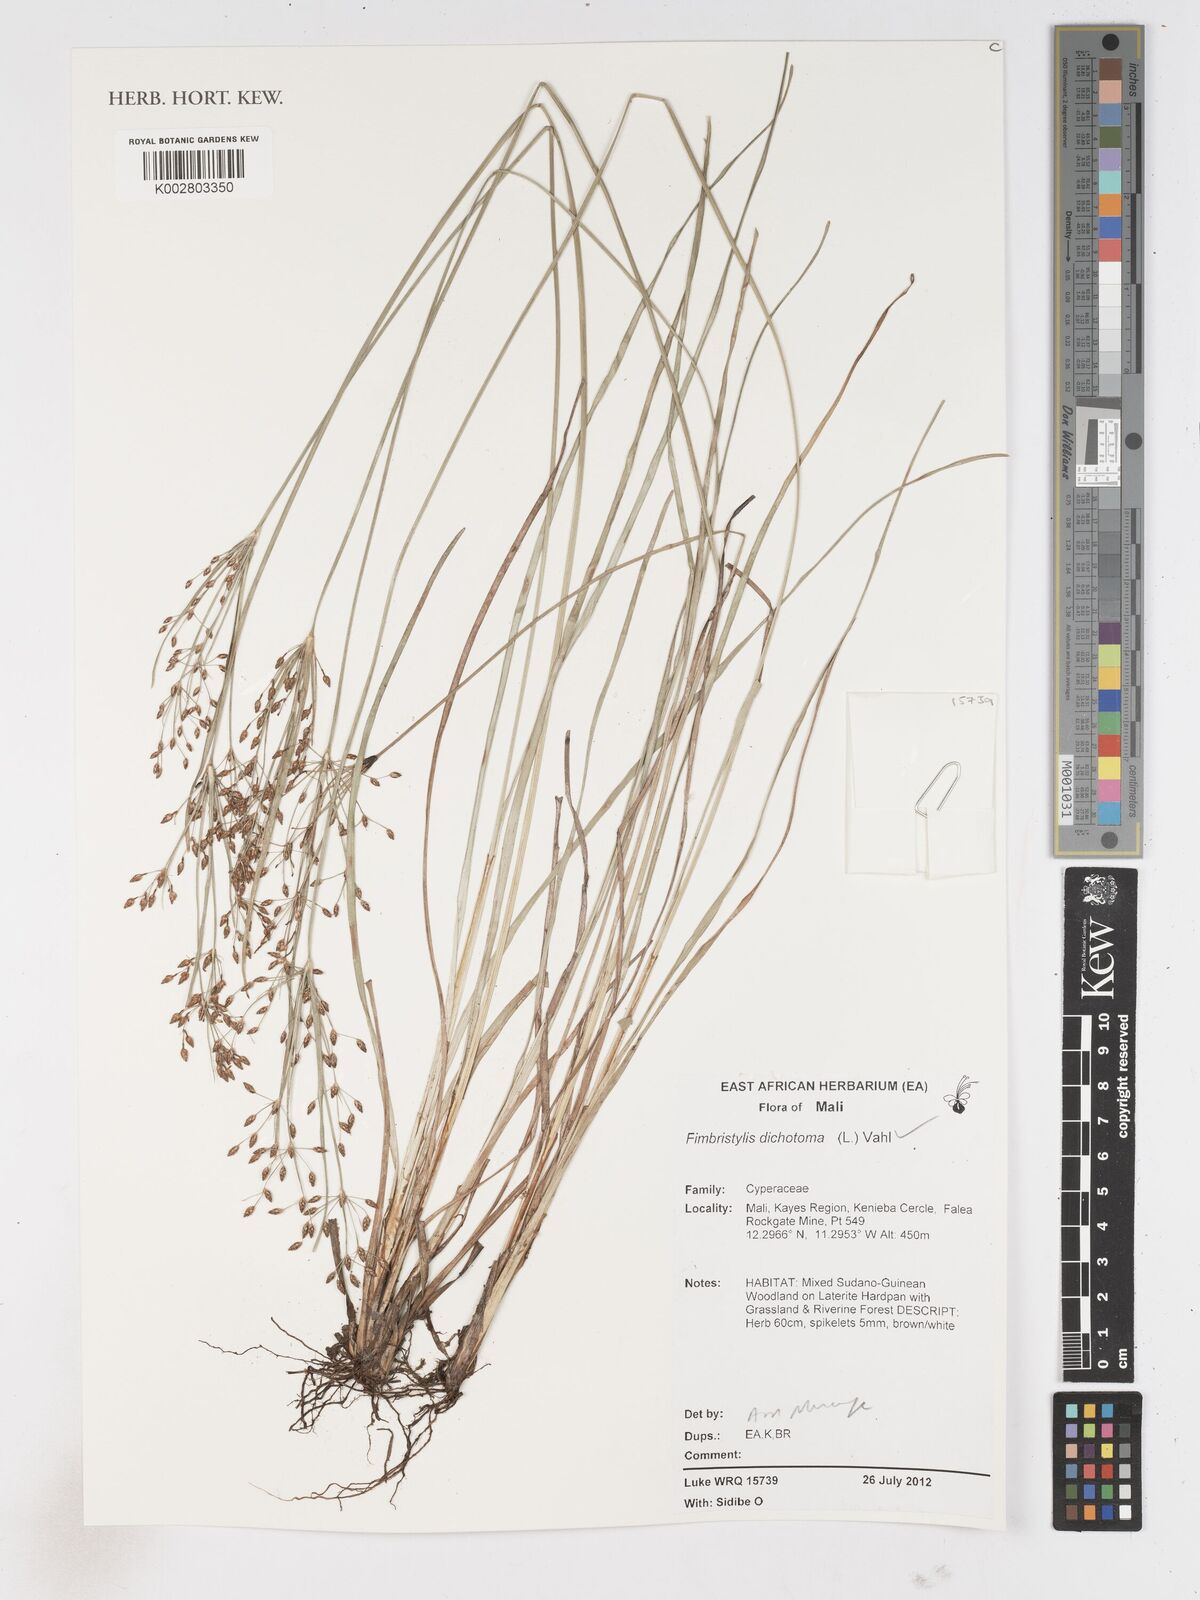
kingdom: Plantae
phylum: Tracheophyta
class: Liliopsida
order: Poales
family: Cyperaceae
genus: Fimbristylis
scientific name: Fimbristylis dichotoma
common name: Forked fimbry
